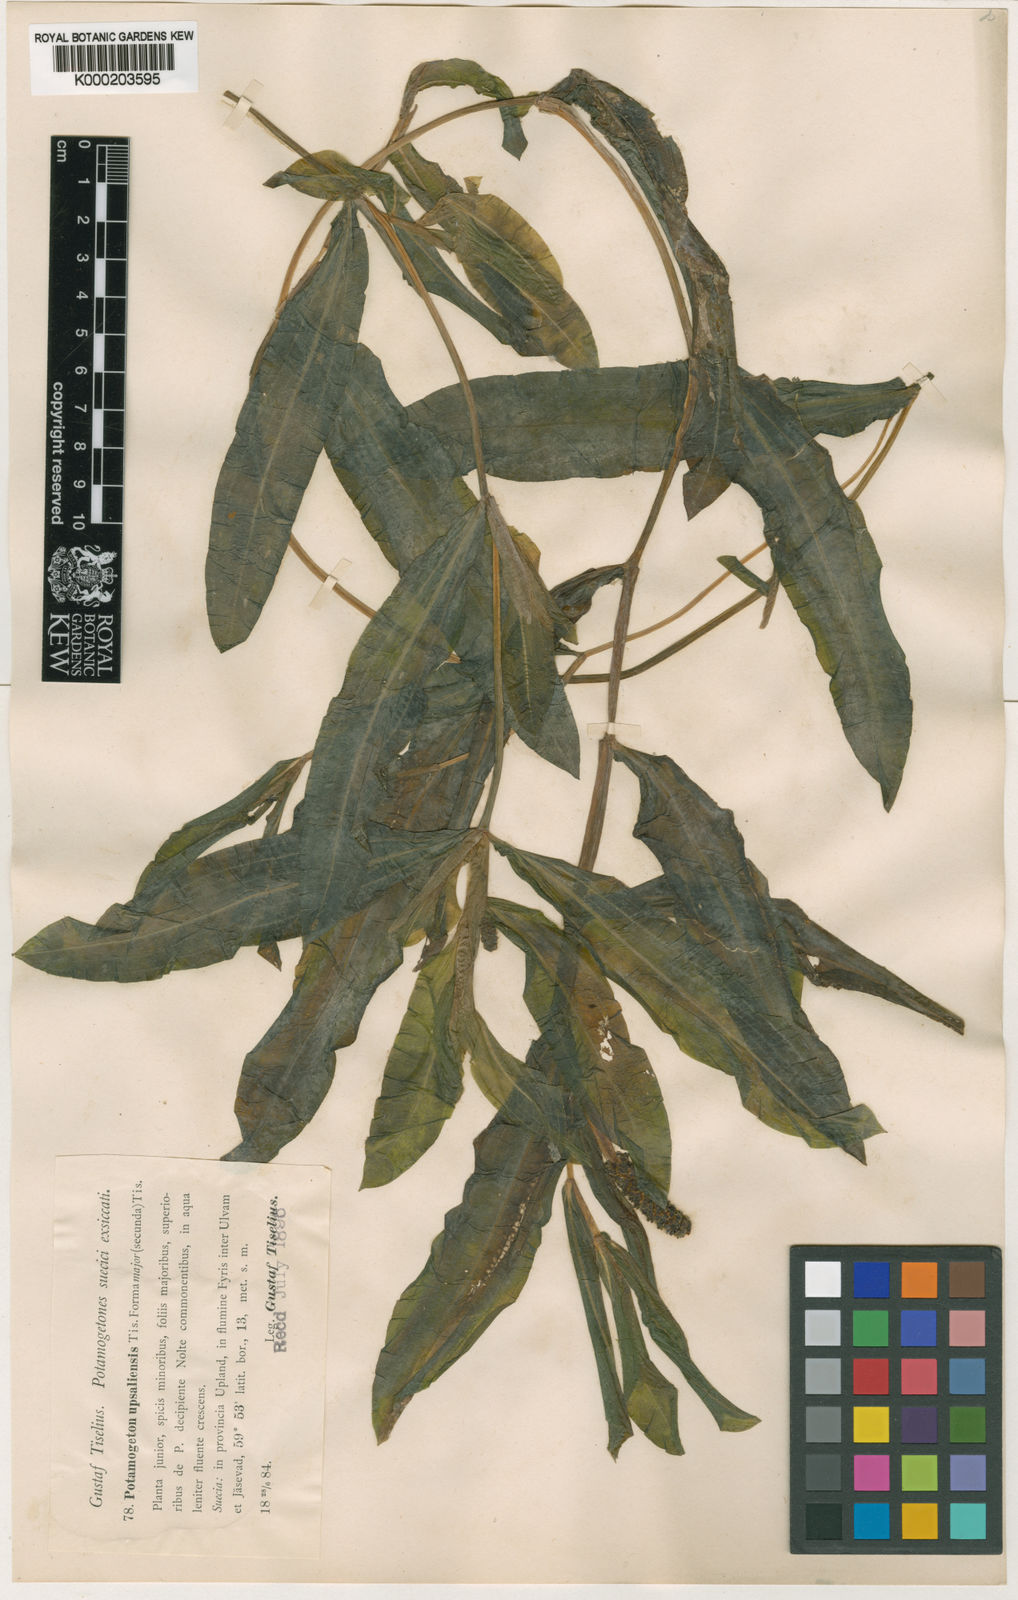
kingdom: Plantae
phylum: Tracheophyta
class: Liliopsida
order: Alismatales
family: Potamogetonaceae
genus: Potamogeton
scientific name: Potamogeton salicifolius
